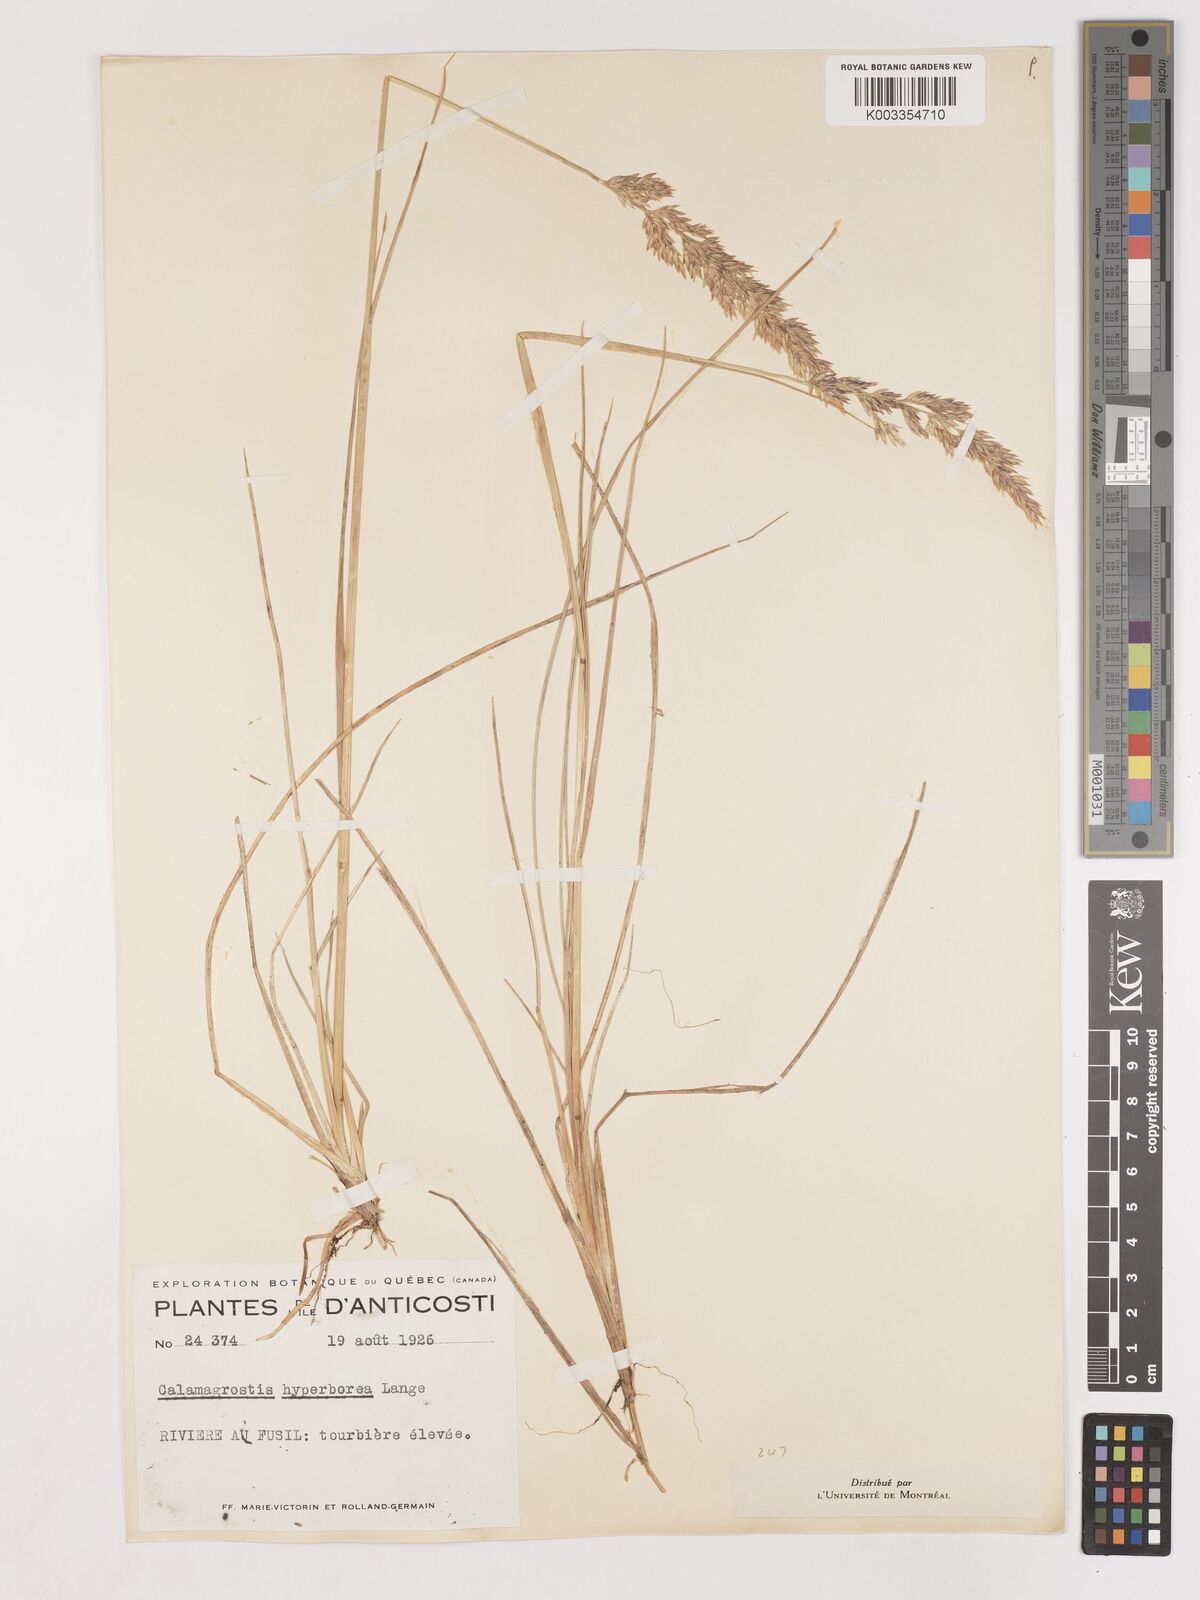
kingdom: Plantae
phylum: Tracheophyta
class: Liliopsida
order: Poales
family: Poaceae
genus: Cinnagrostis
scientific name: Cinnagrostis recta
